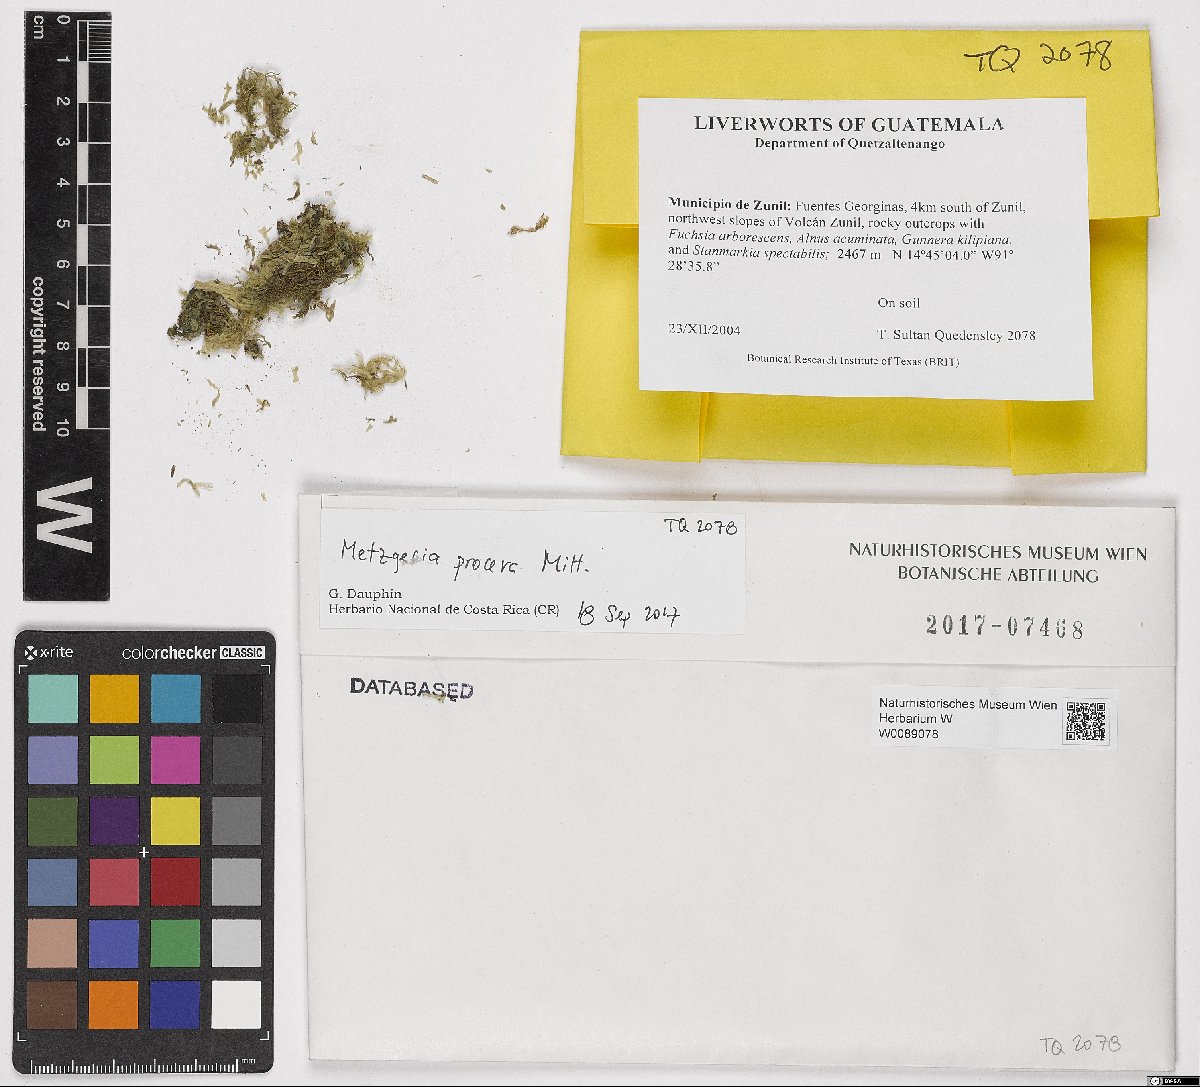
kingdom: Plantae
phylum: Marchantiophyta
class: Jungermanniopsida
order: Metzgeriales
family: Metzgeriaceae
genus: Metzgeria
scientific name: Metzgeria procera
